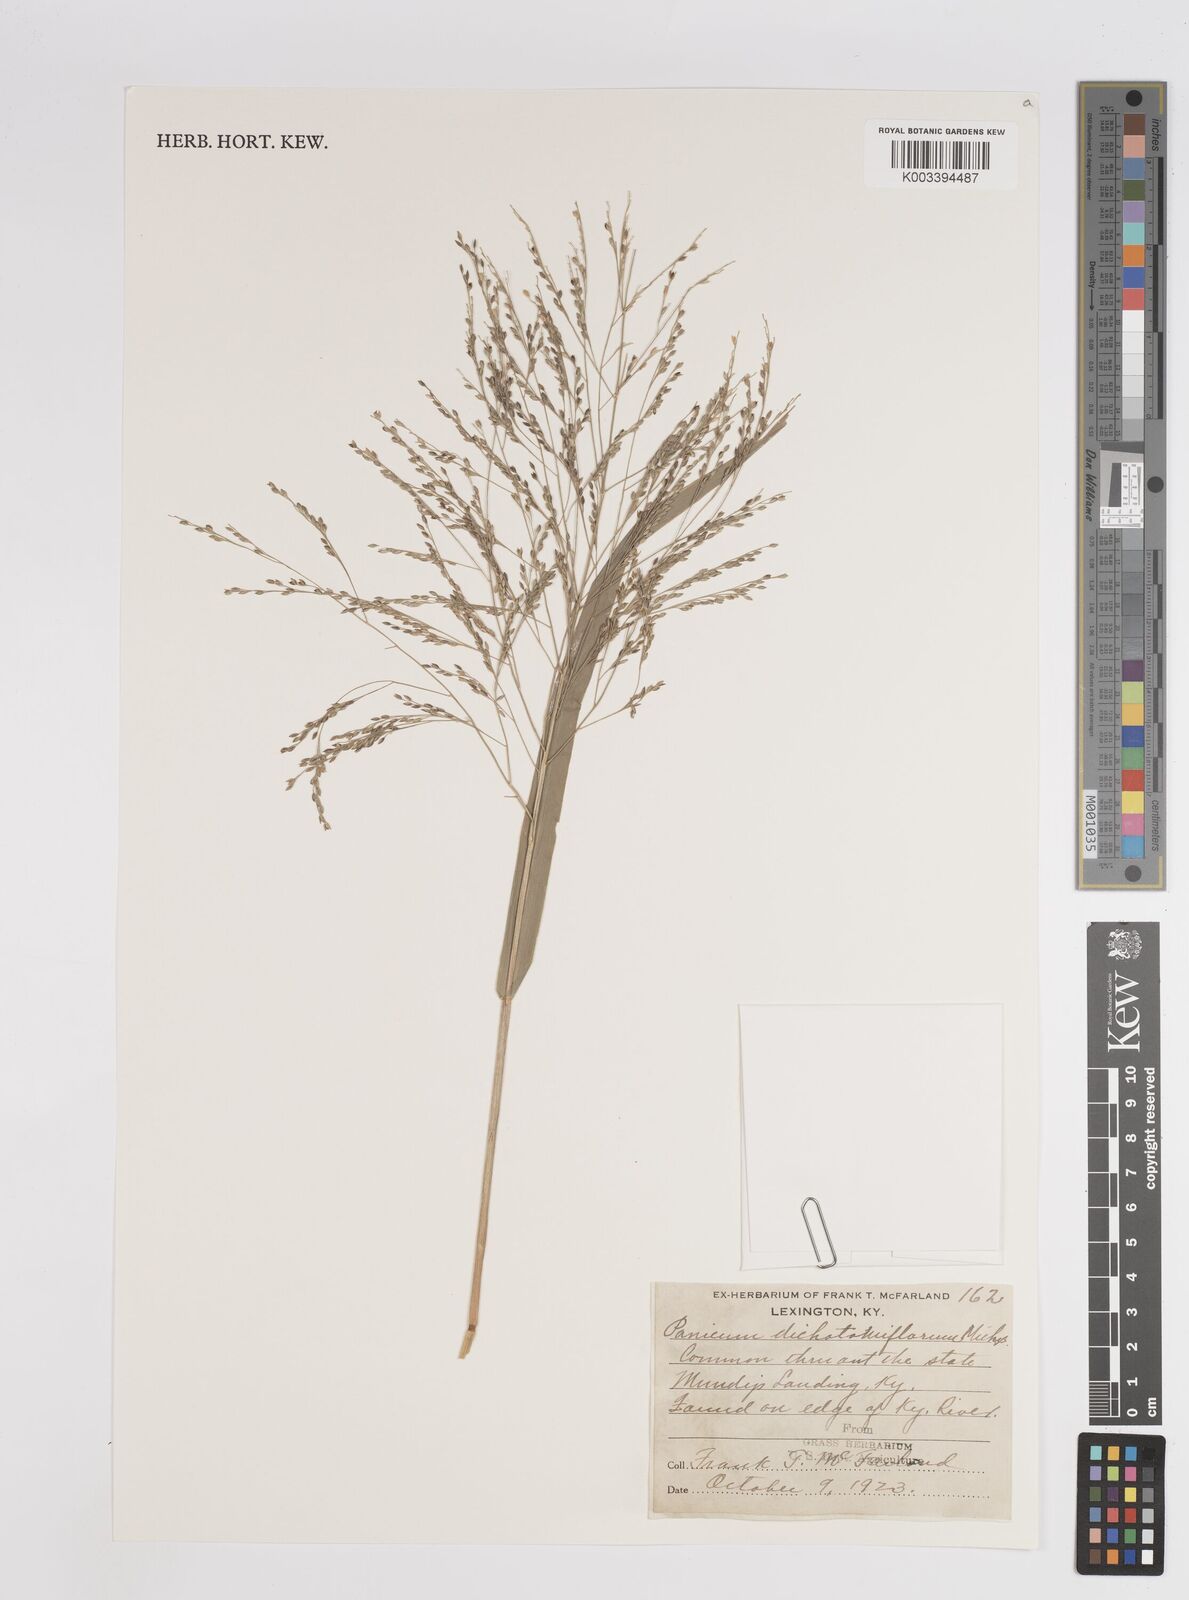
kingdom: Plantae
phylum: Tracheophyta
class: Liliopsida
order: Poales
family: Poaceae
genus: Panicum
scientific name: Panicum dichotomiflorum
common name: Autumn millet
